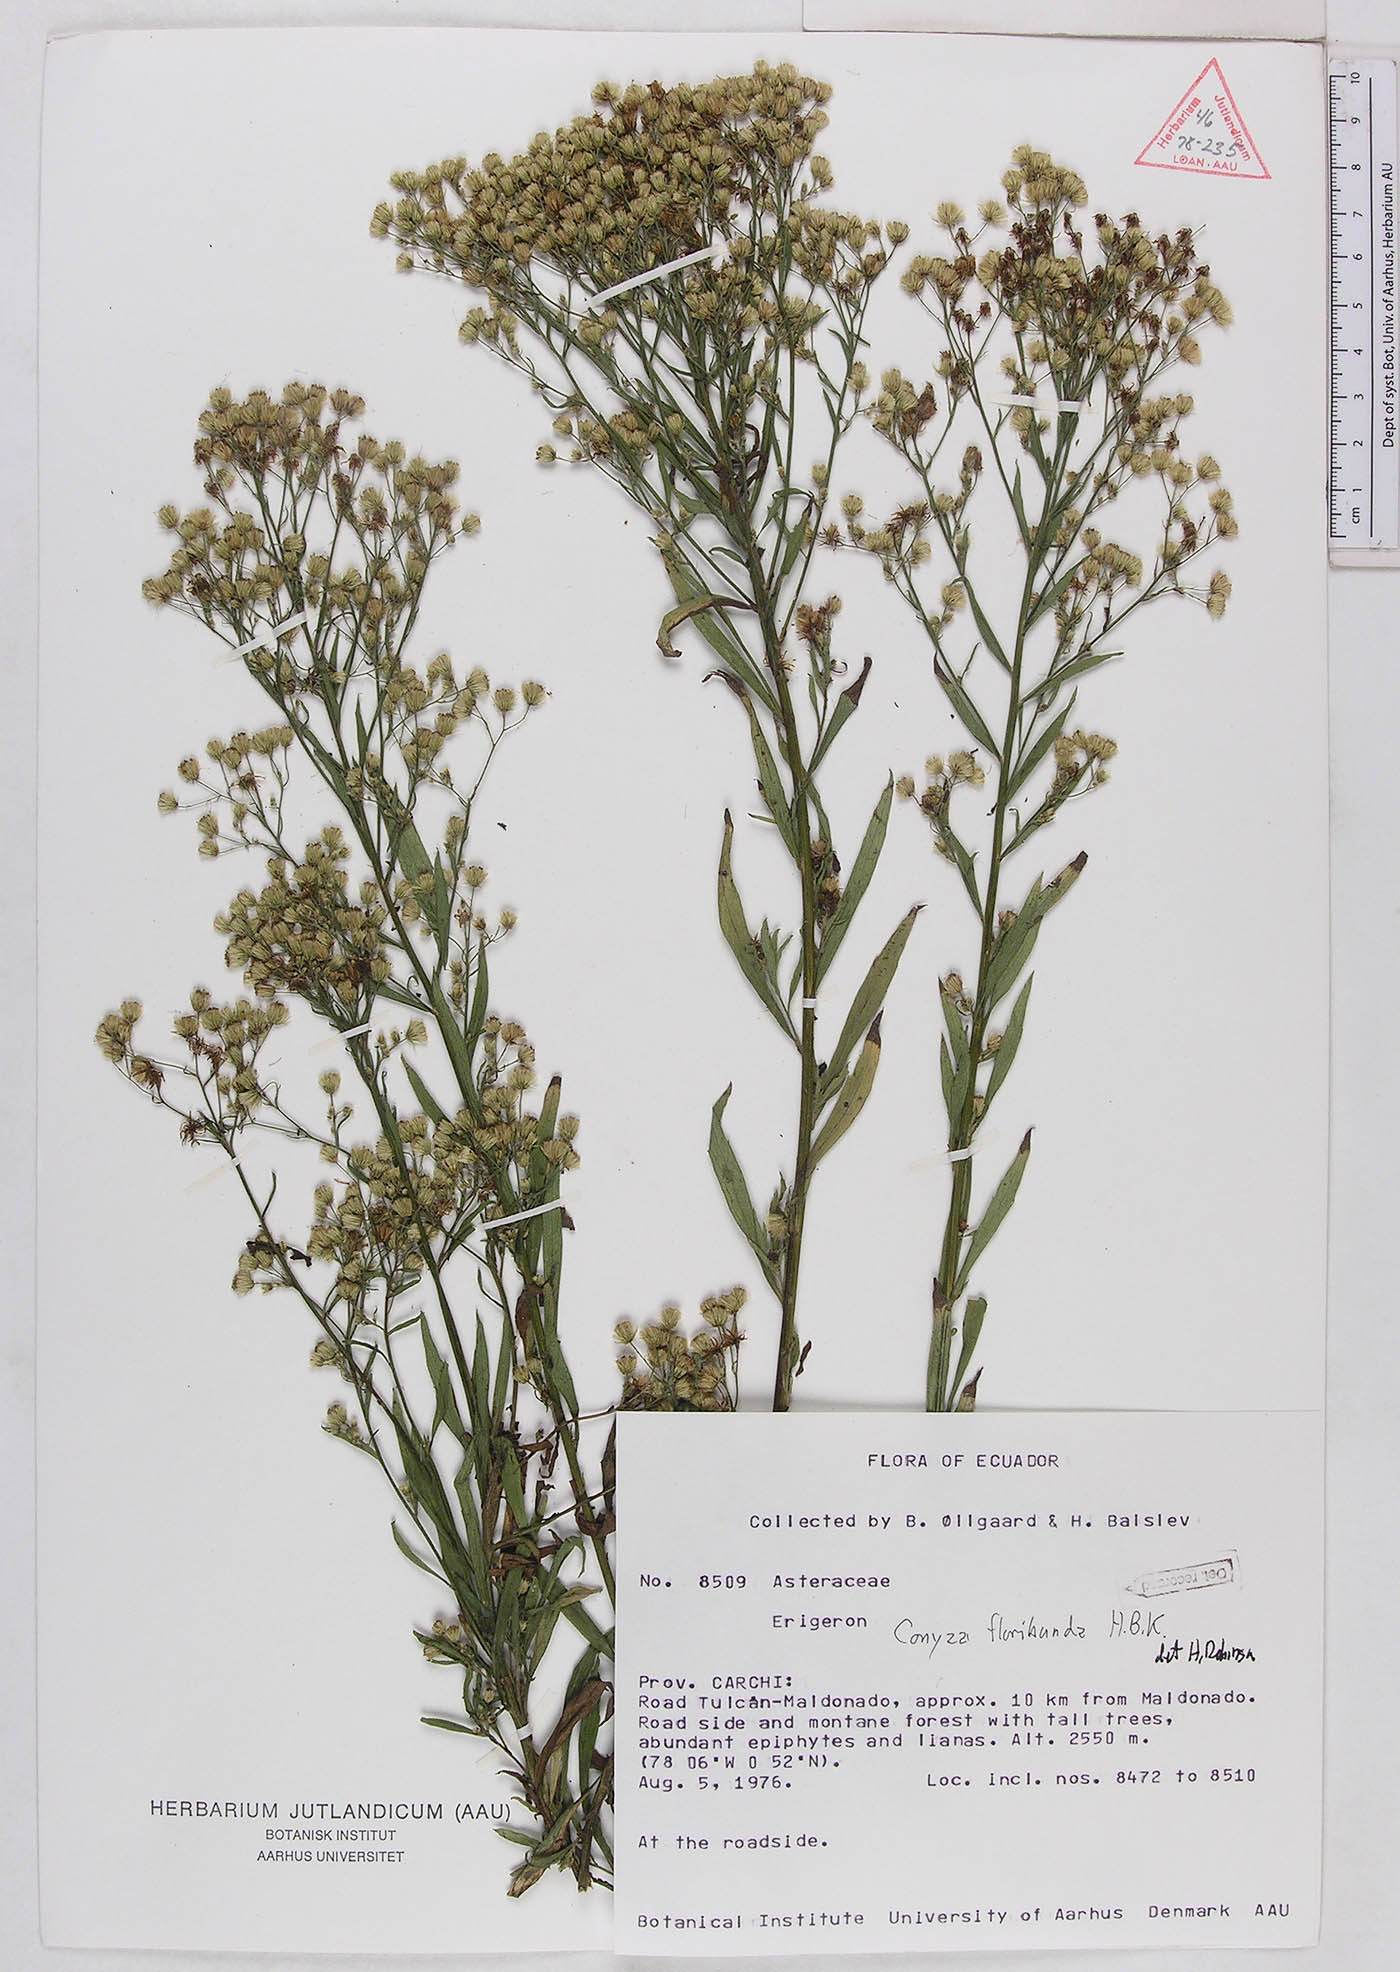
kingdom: Plantae
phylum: Tracheophyta
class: Magnoliopsida
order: Asterales
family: Asteraceae
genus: Erigeron
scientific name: Erigeron floribundus
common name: Bilbao fleabane
